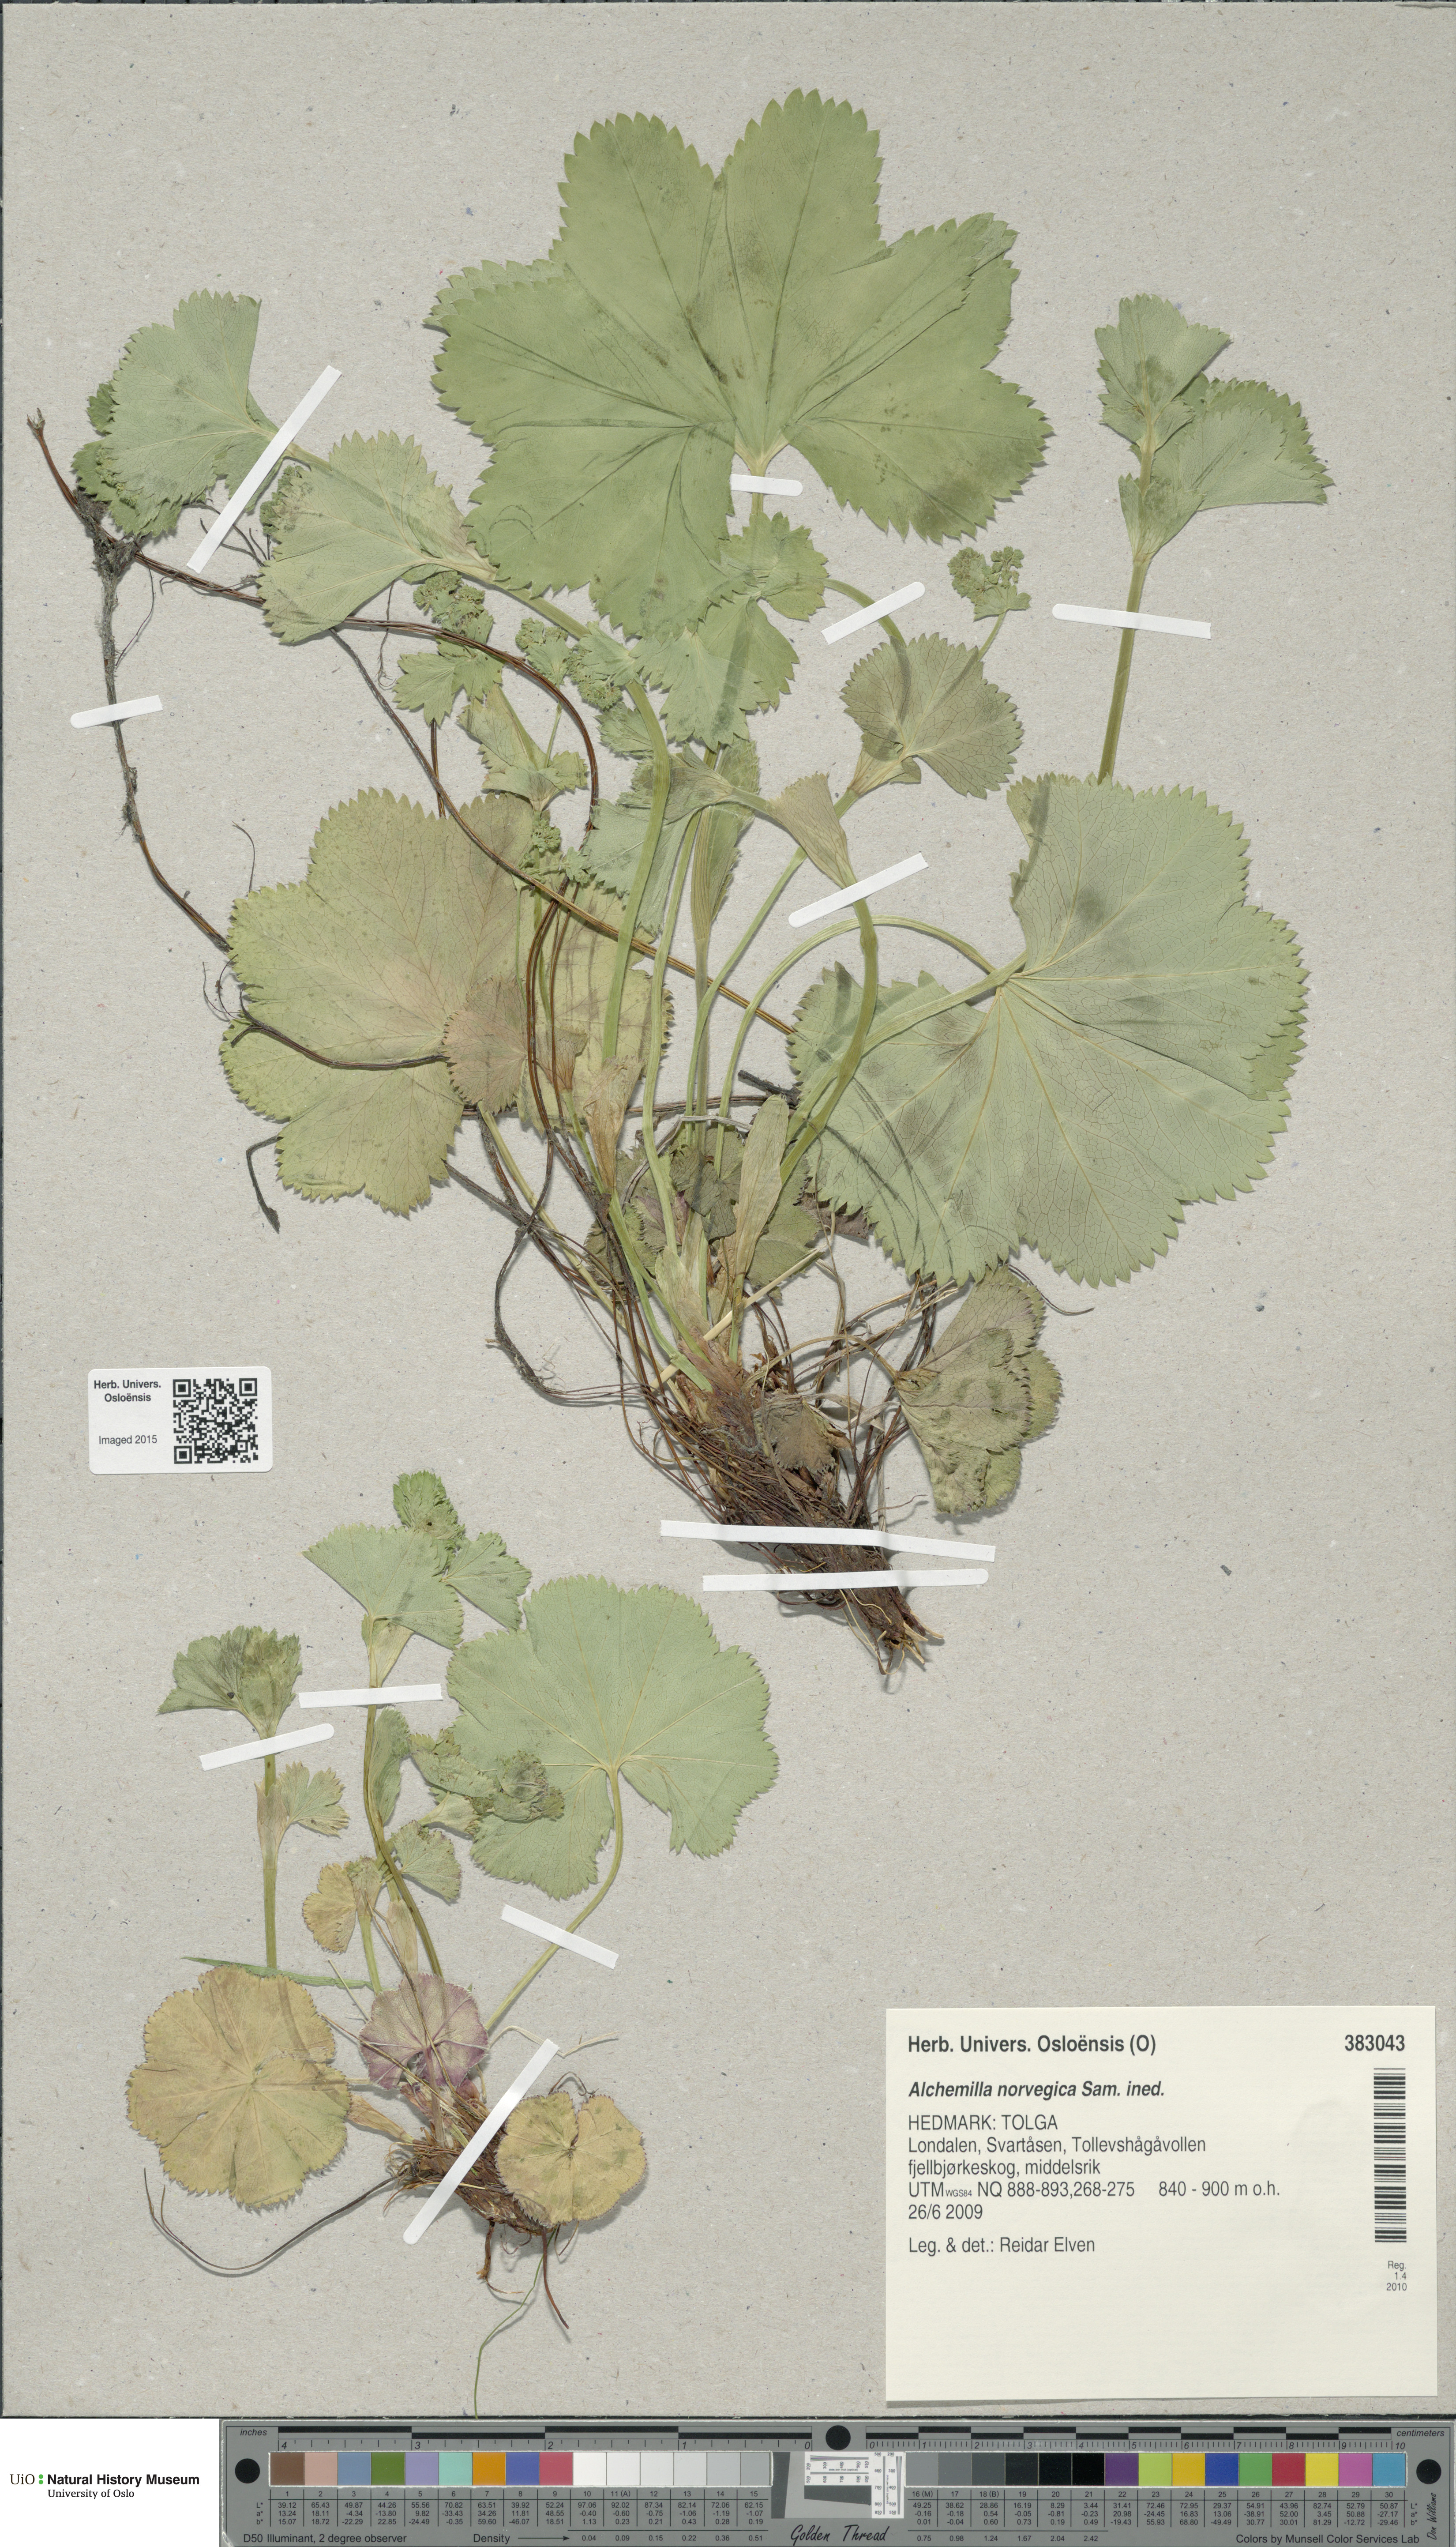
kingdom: Plantae
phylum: Tracheophyta
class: Magnoliopsida
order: Rosales
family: Rosaceae
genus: Alchemilla
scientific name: Alchemilla norvegica
